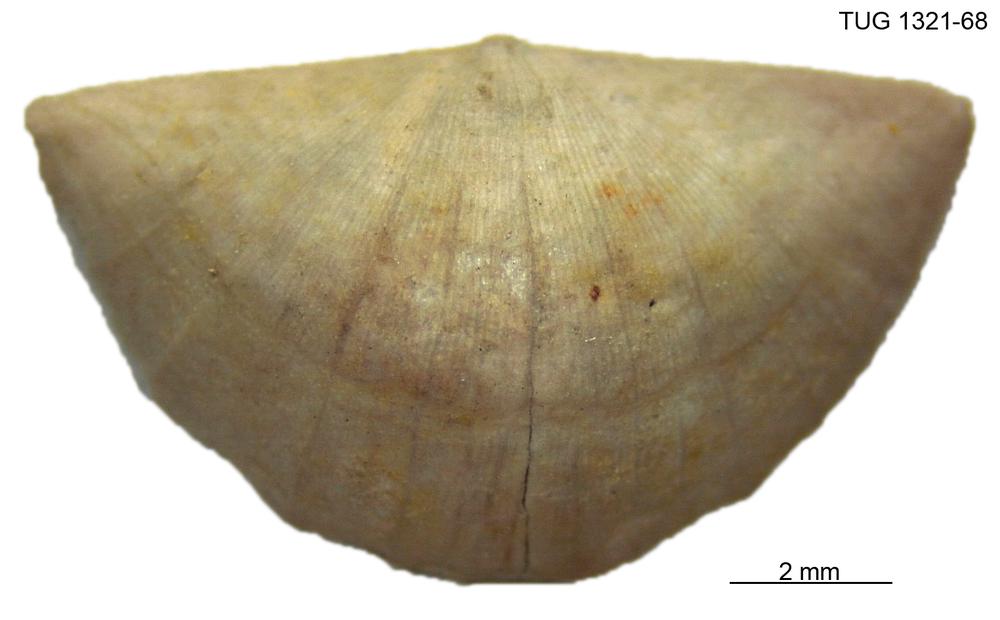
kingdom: Animalia
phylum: Brachiopoda
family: Sowerbyellidae
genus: Sowerbyella
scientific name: Sowerbyella uhakuana
